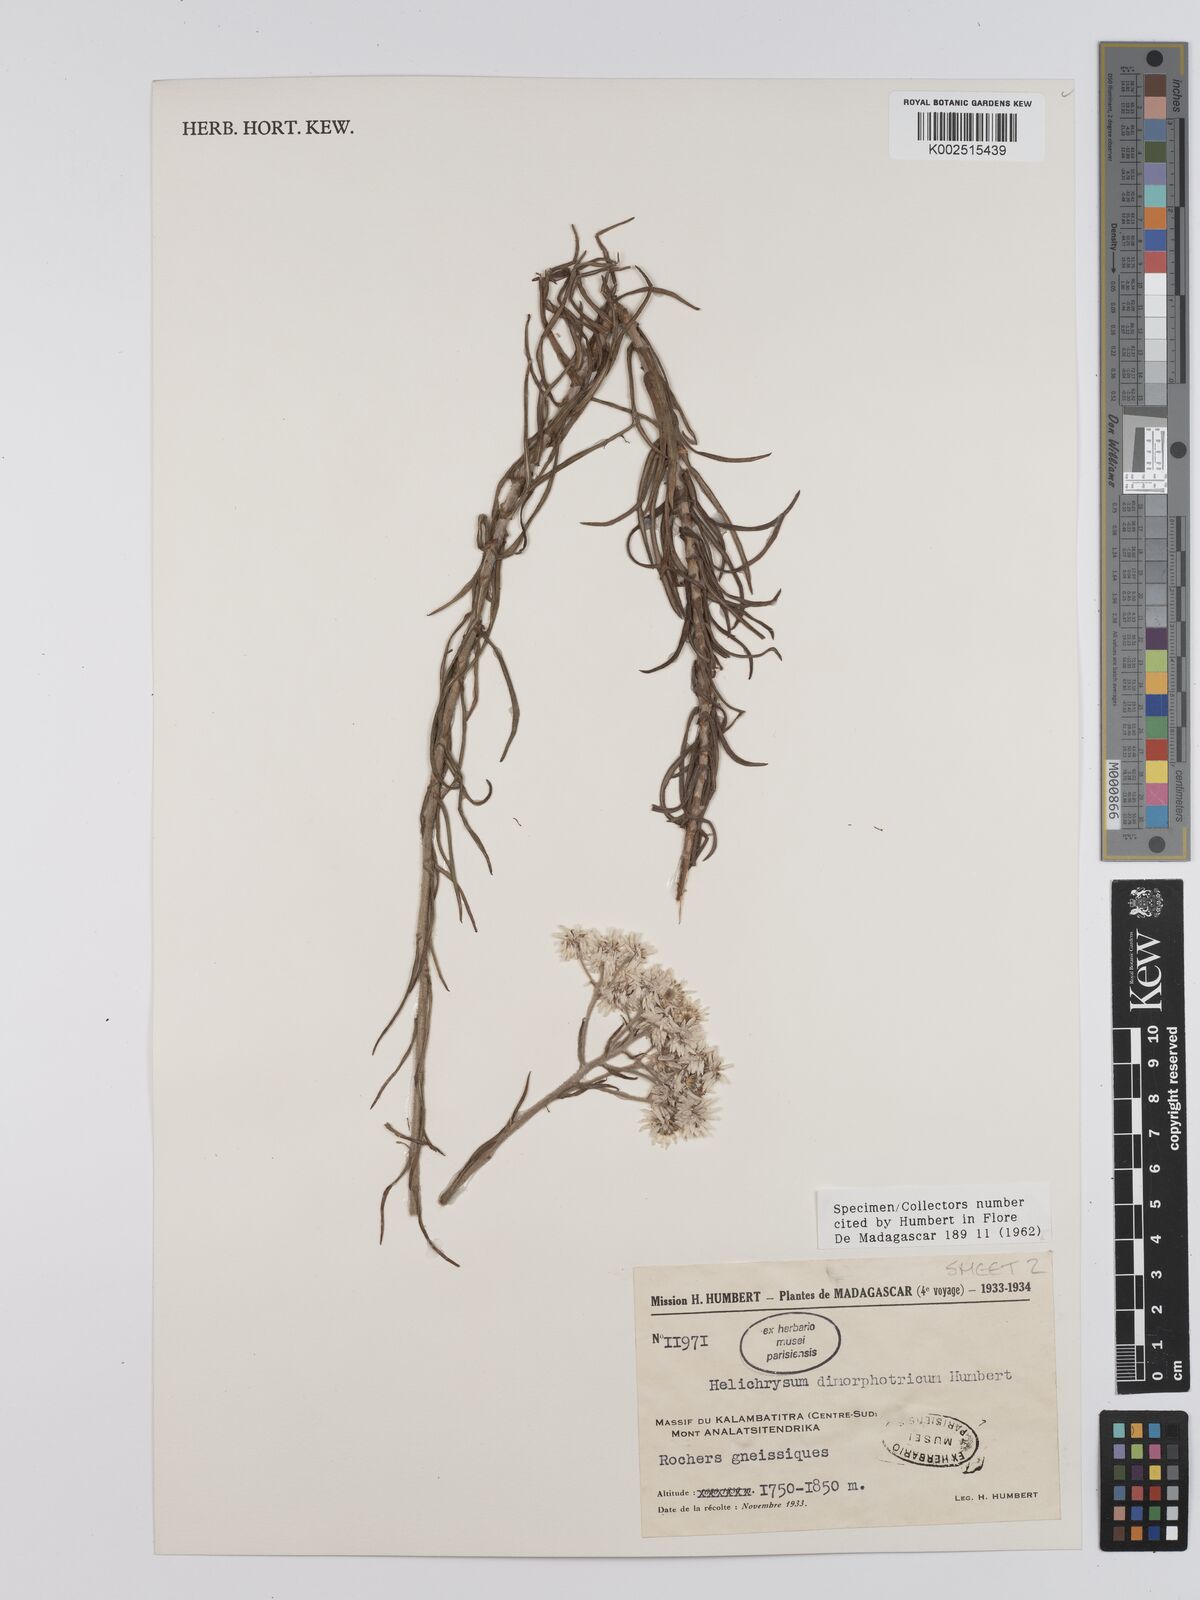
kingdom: Plantae
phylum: Tracheophyta
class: Magnoliopsida
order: Asterales
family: Asteraceae
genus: Helichrysum
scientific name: Helichrysum dimorphotrichum
